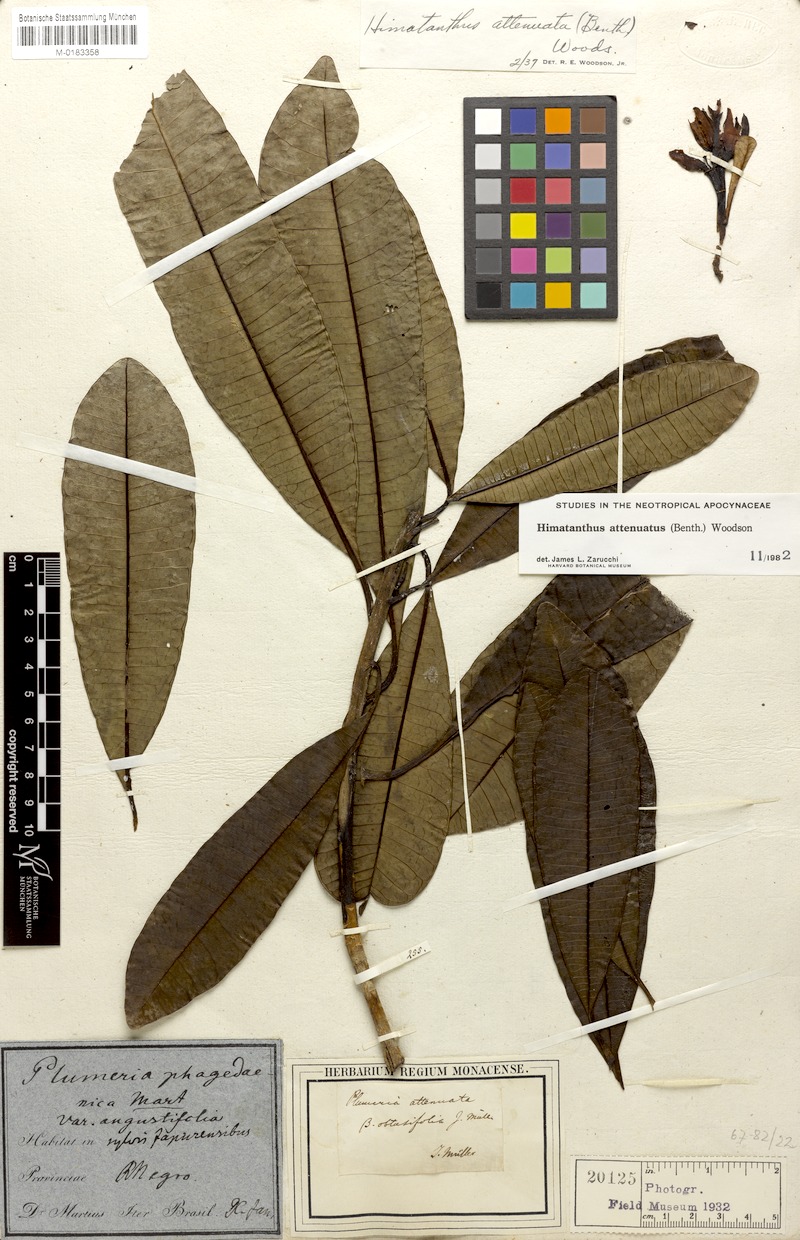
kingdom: Plantae
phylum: Tracheophyta
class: Magnoliopsida
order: Gentianales
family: Apocynaceae
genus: Himatanthus
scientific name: Himatanthus attenuatus
